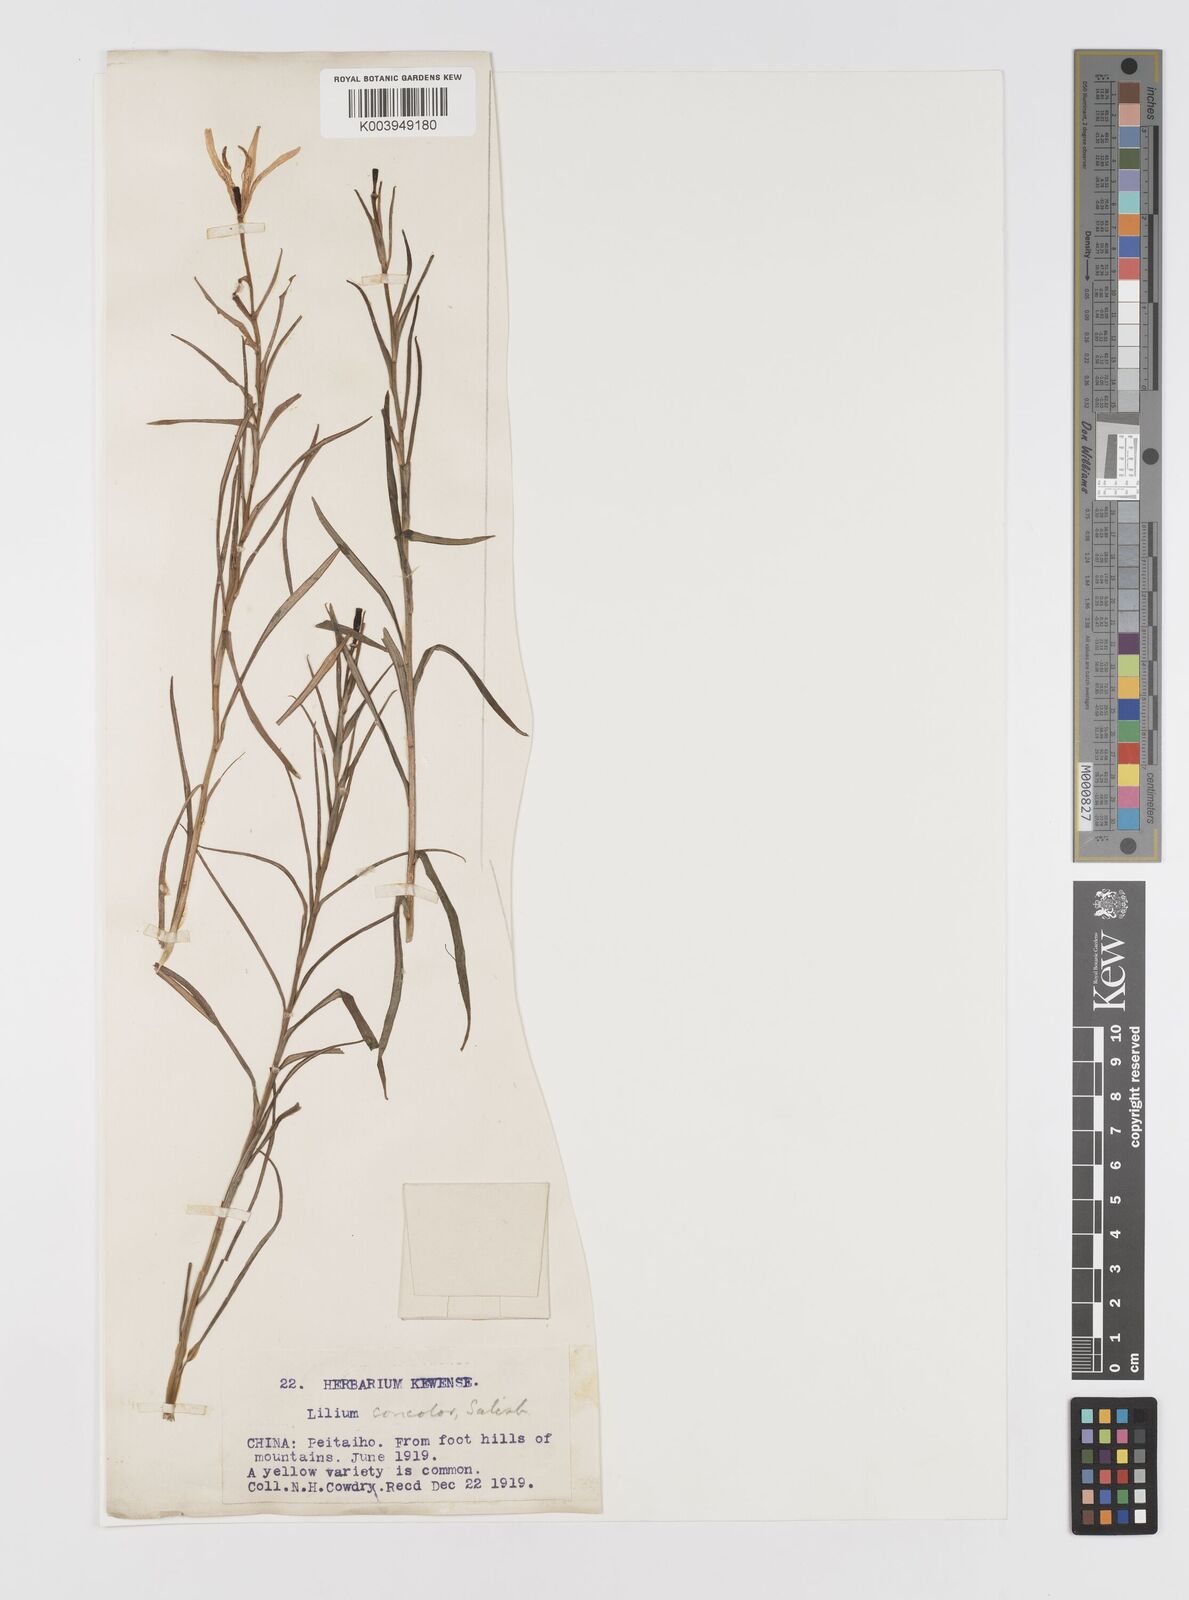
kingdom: Plantae
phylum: Tracheophyta
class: Liliopsida
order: Liliales
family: Liliaceae
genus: Lilium
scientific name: Lilium concolor
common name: Morning-star lily
